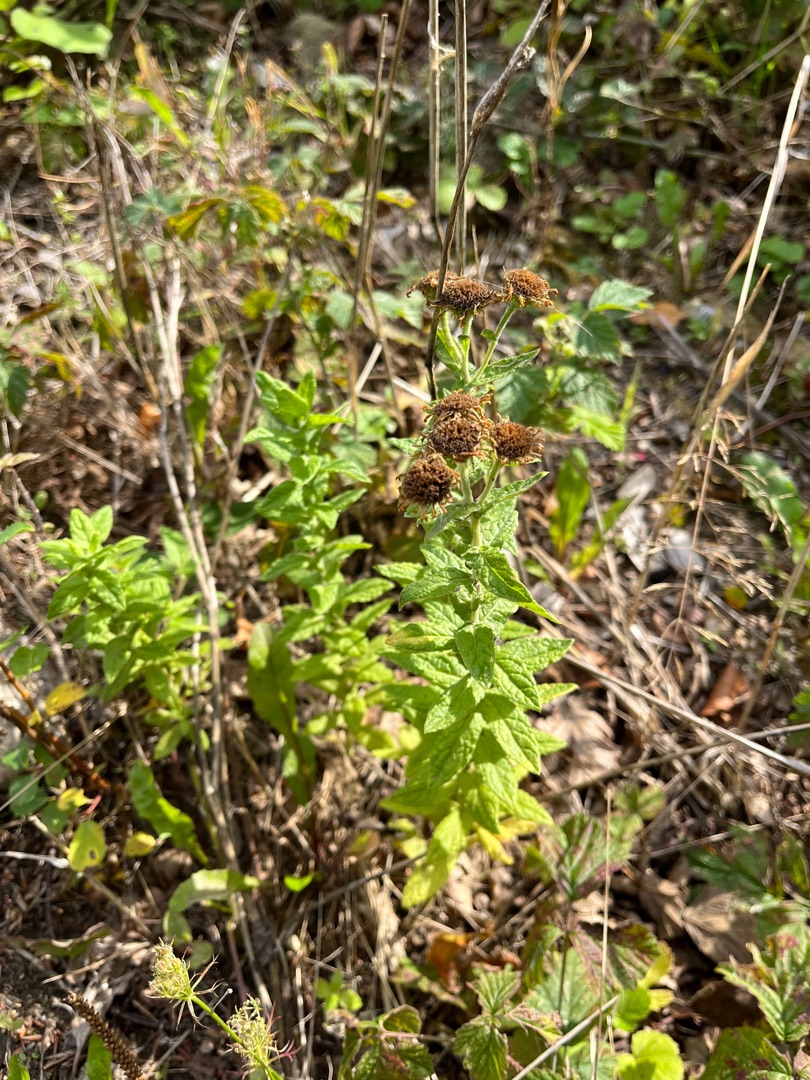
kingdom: Plantae
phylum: Tracheophyta
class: Magnoliopsida
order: Asterales
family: Asteraceae
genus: Pulicaria
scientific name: Pulicaria dysenterica
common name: Strand-loppeurt
